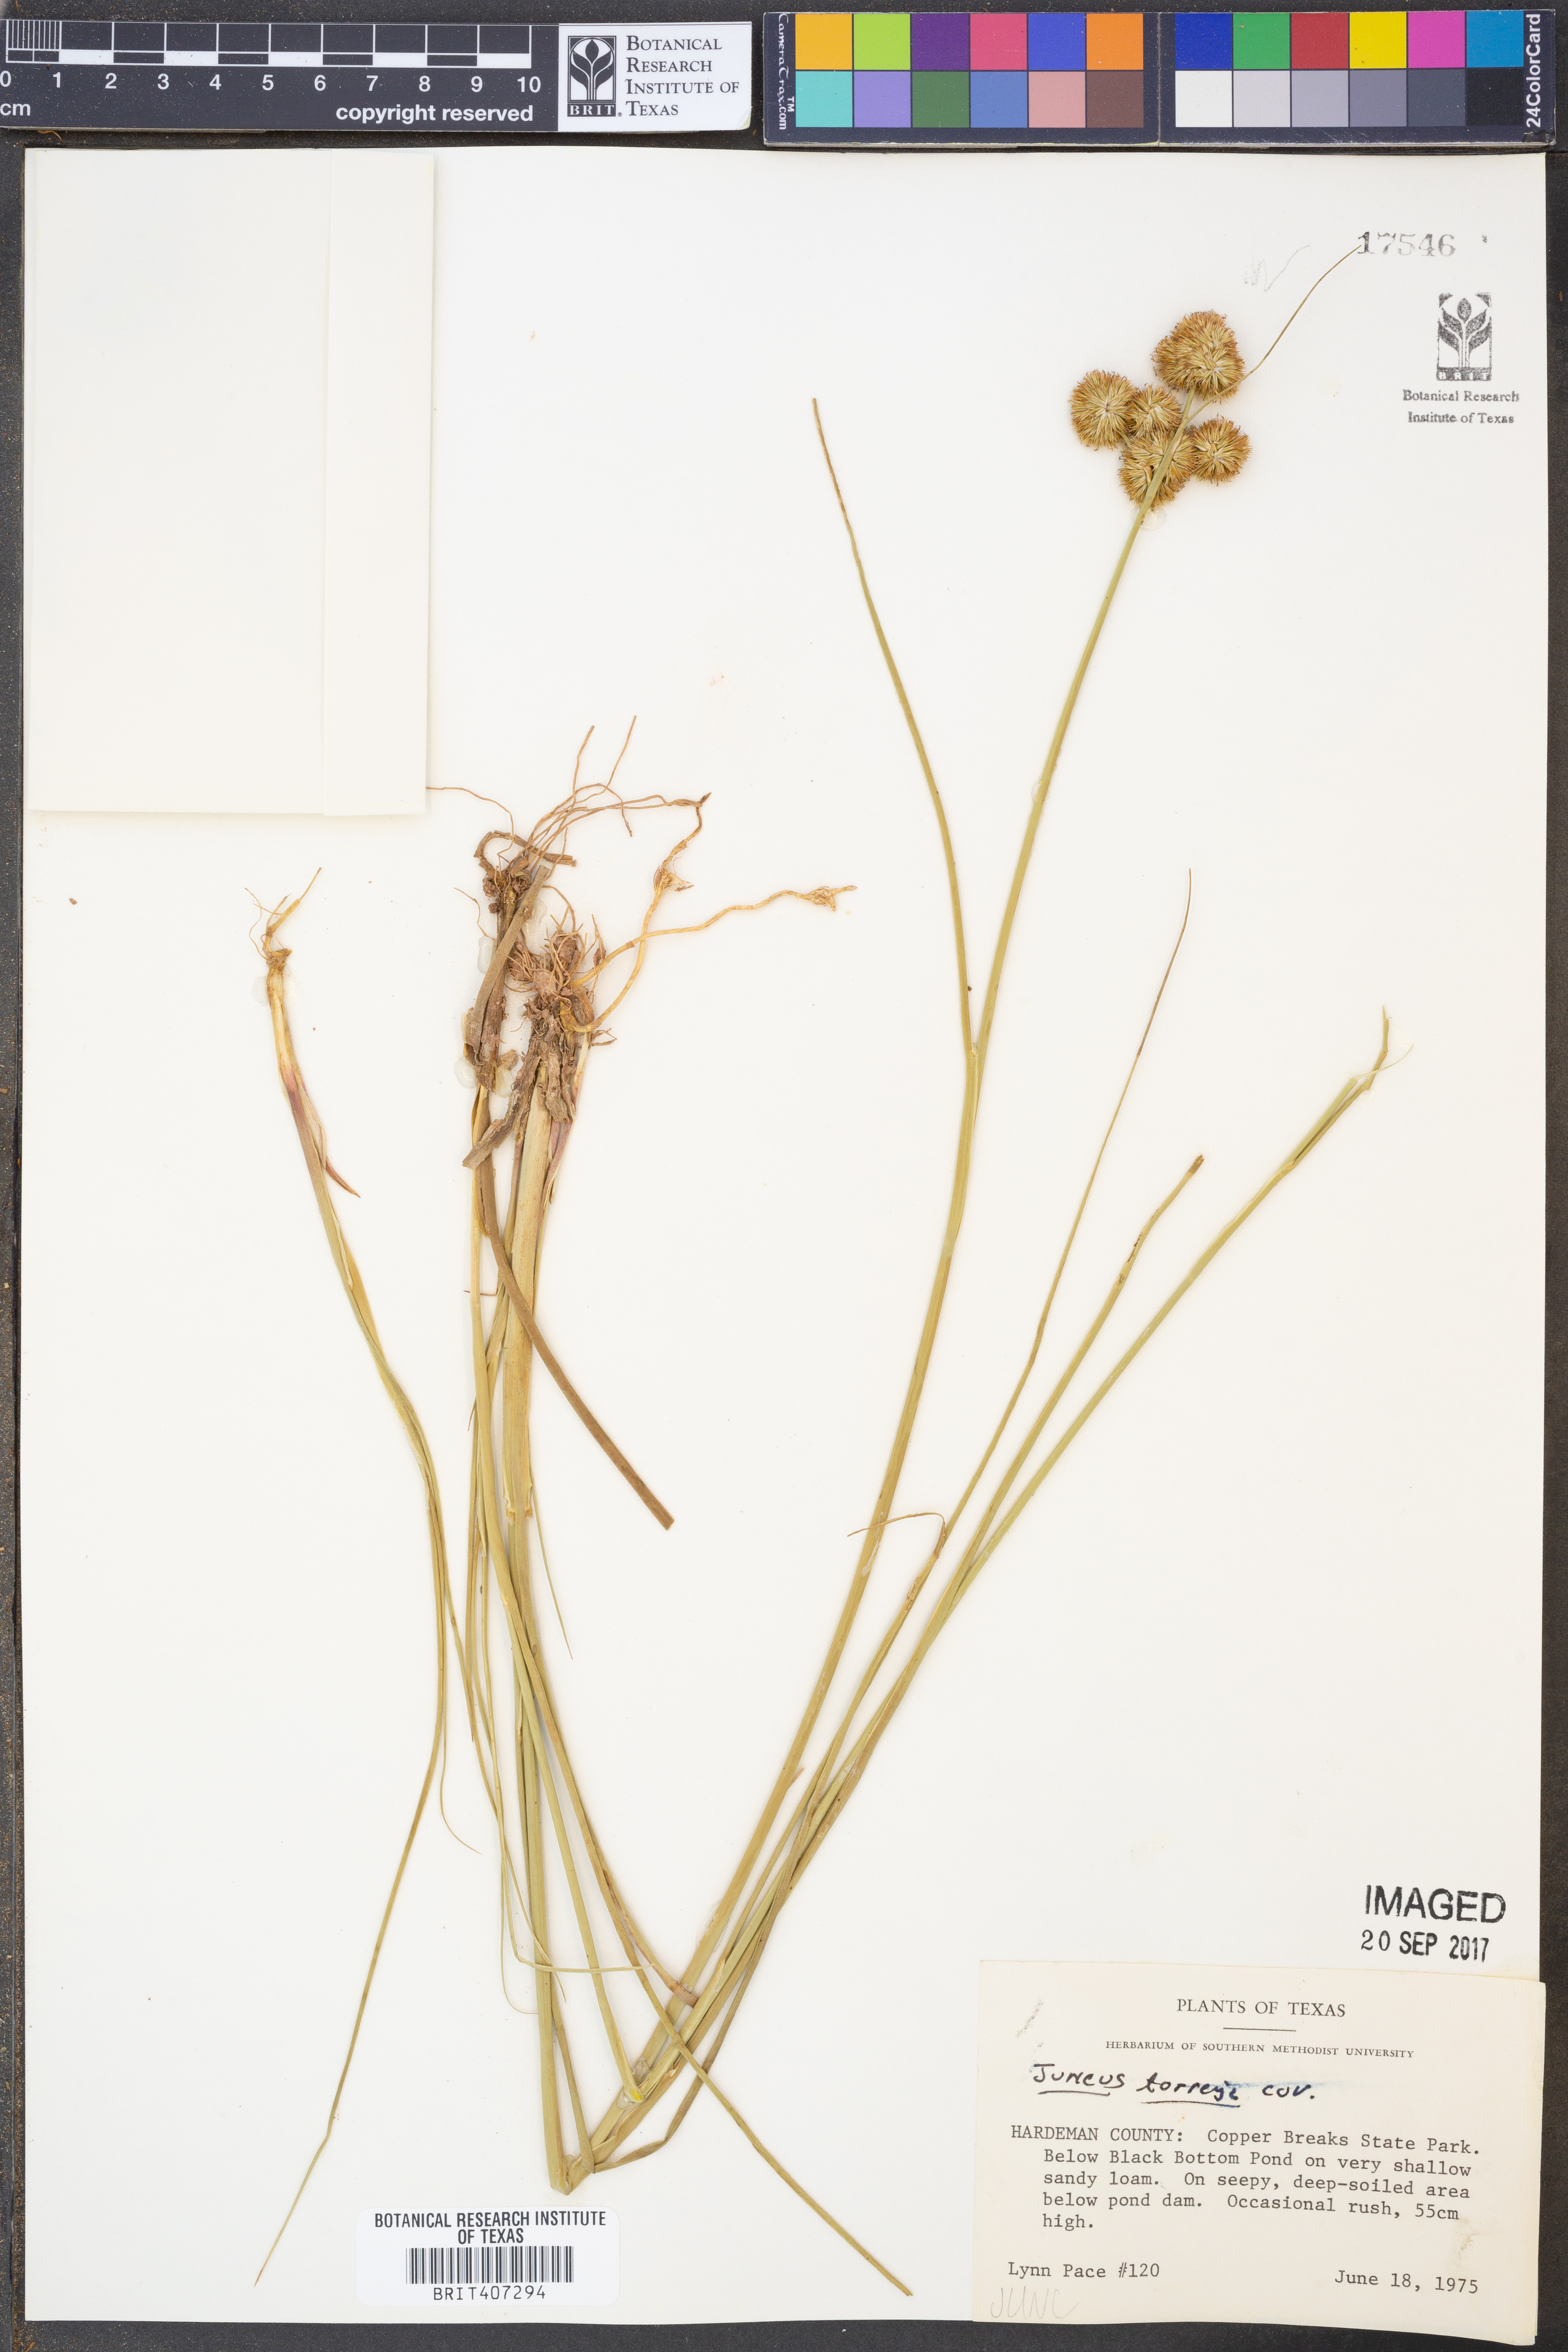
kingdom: Plantae
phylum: Tracheophyta
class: Liliopsida
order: Poales
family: Juncaceae
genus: Juncus
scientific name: Juncus torreyi
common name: Torrey's rush
